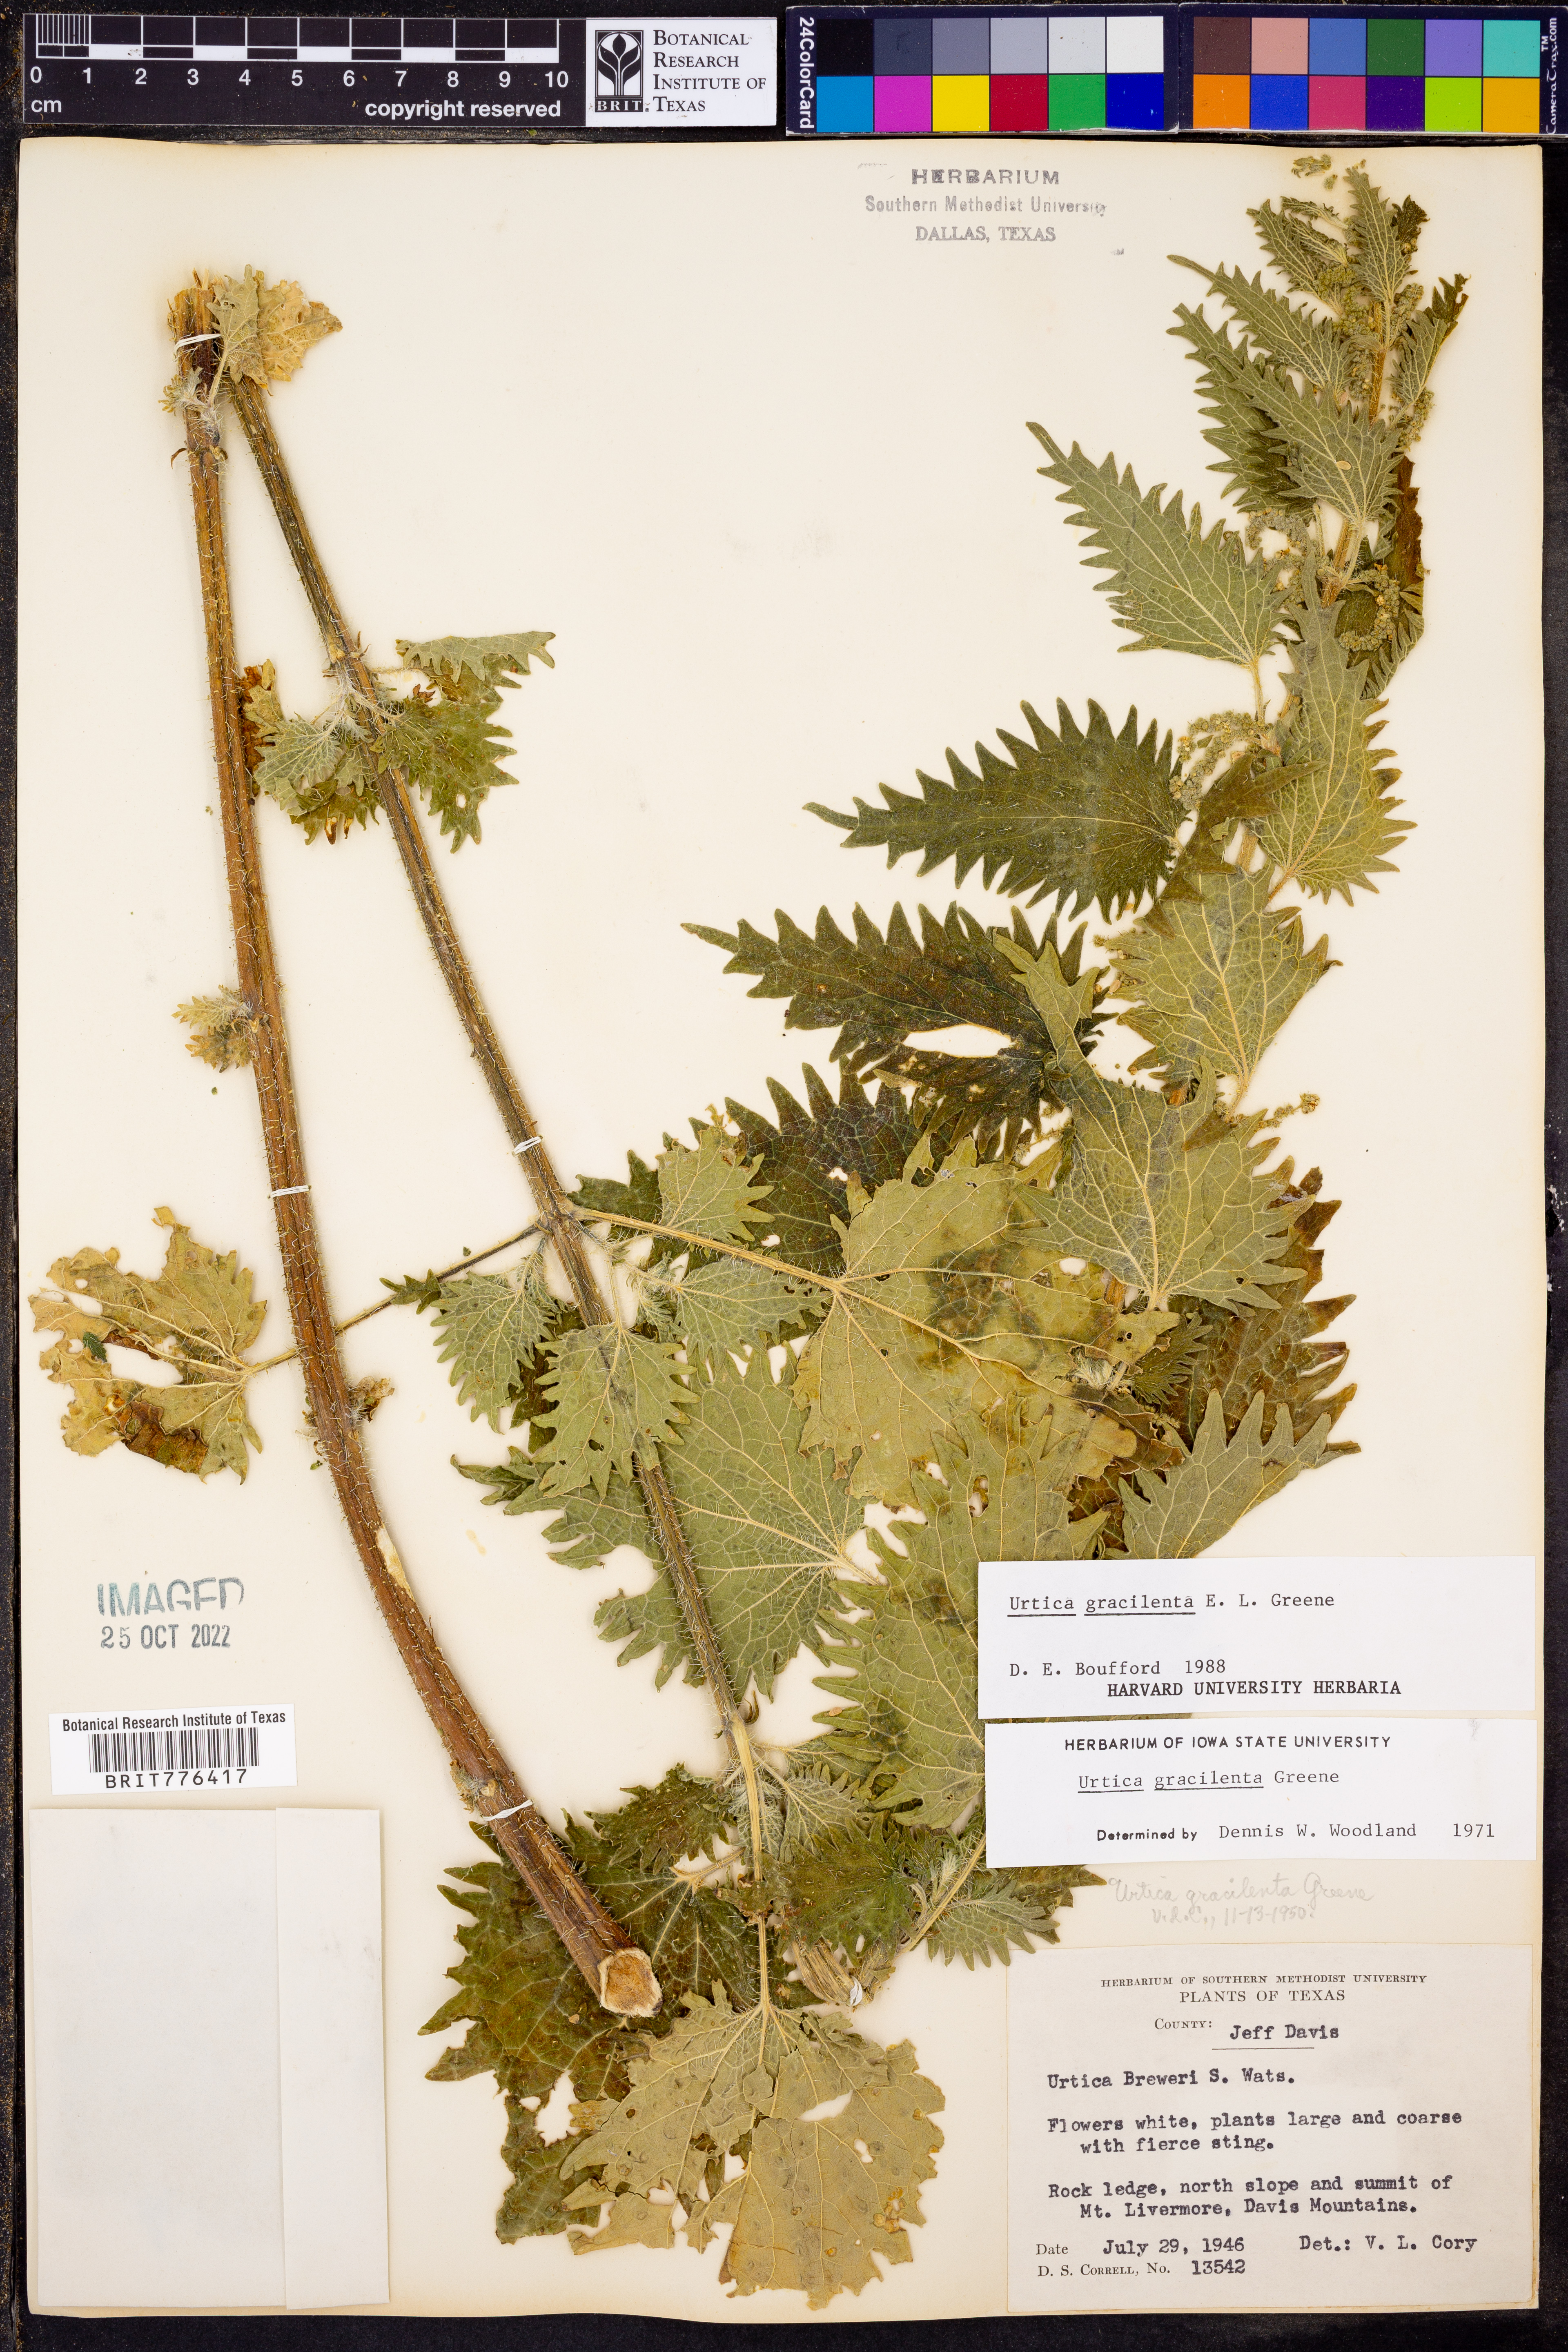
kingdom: Plantae
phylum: Tracheophyta
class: Magnoliopsida
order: Rosales
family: Urticaceae
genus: Urtica
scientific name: Urtica gracilenta
